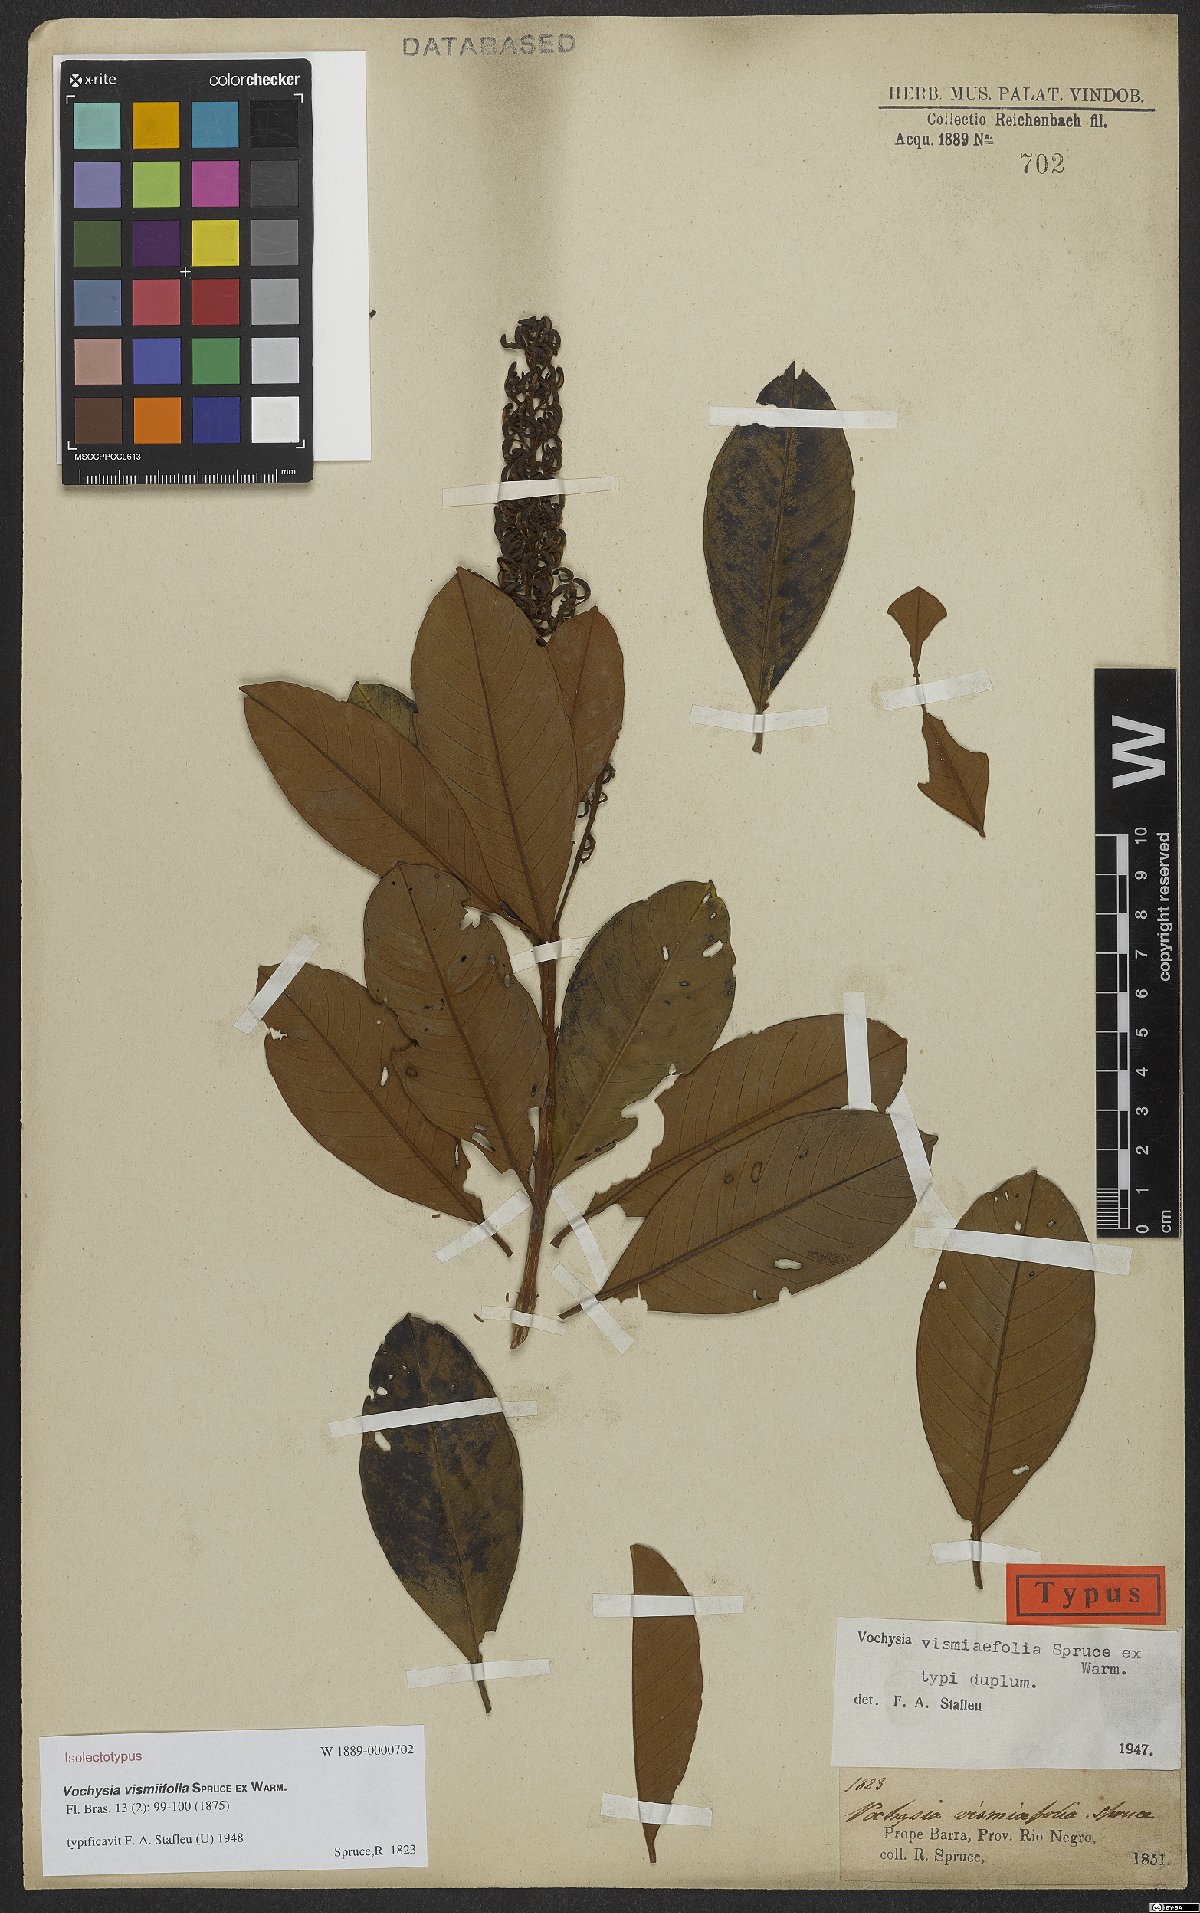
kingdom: Plantae
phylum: Tracheophyta
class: Magnoliopsida
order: Myrtales
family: Vochysiaceae
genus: Vochysia
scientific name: Vochysia vismiifolia
